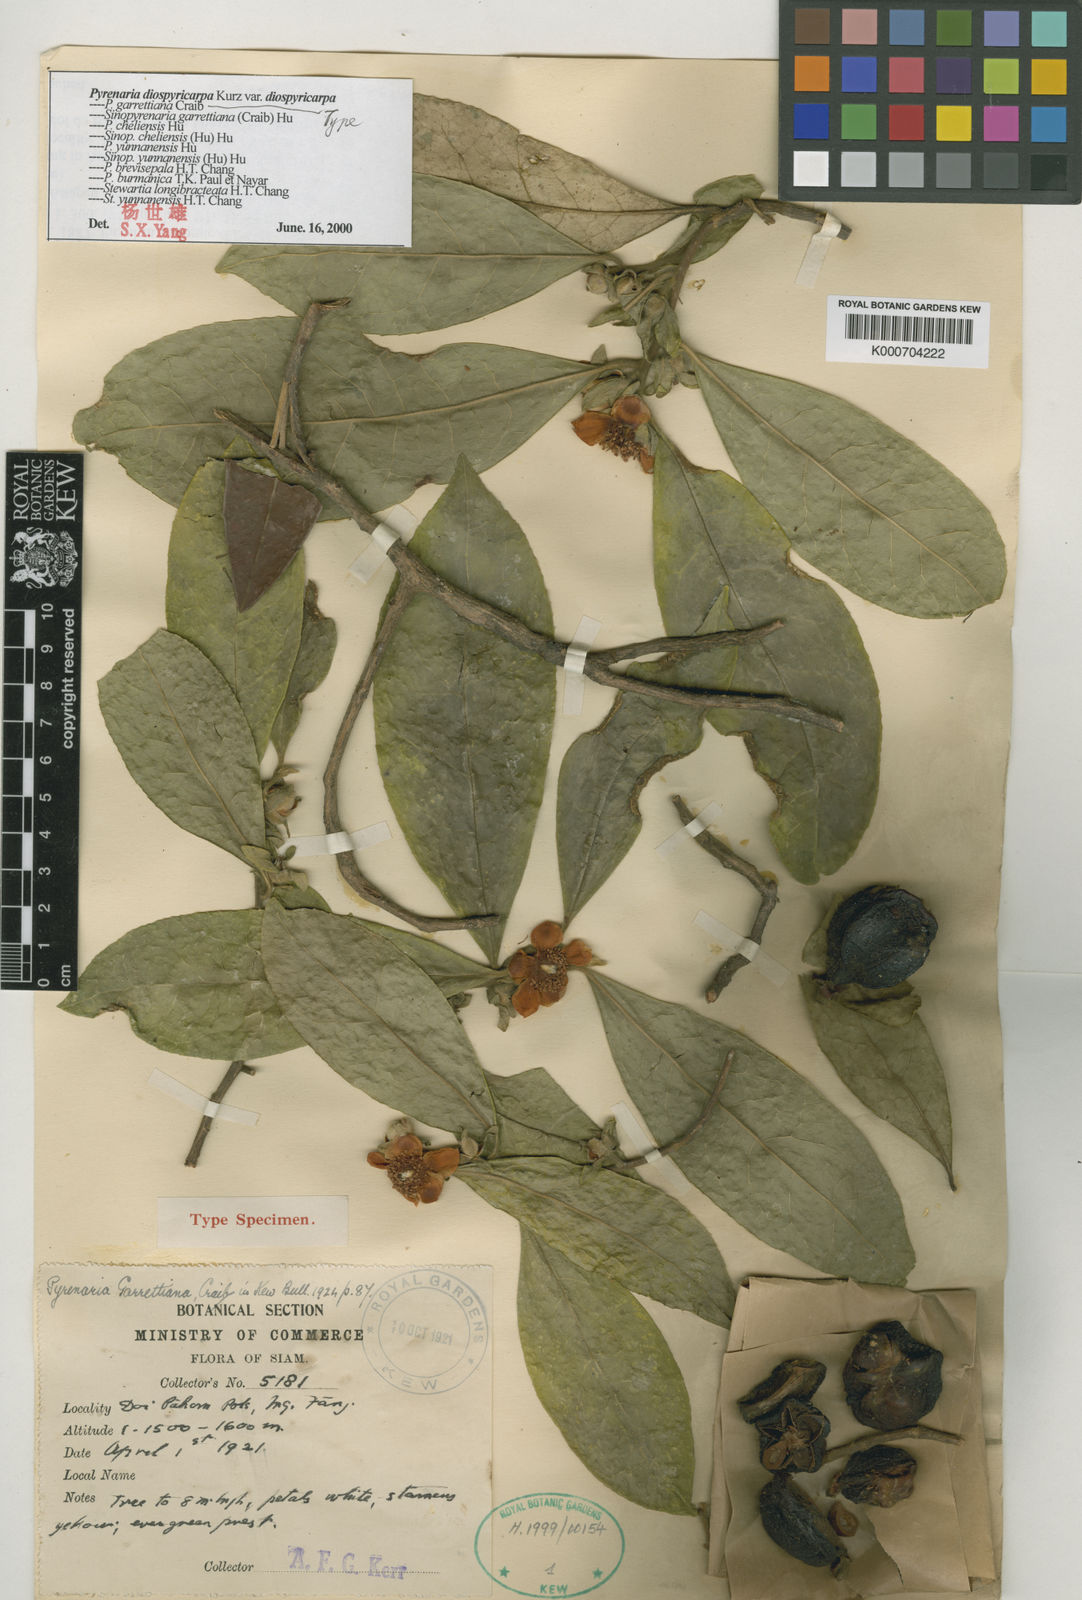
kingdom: Plantae
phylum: Tracheophyta
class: Magnoliopsida
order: Ericales
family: Theaceae
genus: Pyrenaria
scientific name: Pyrenaria diospyricarpa
